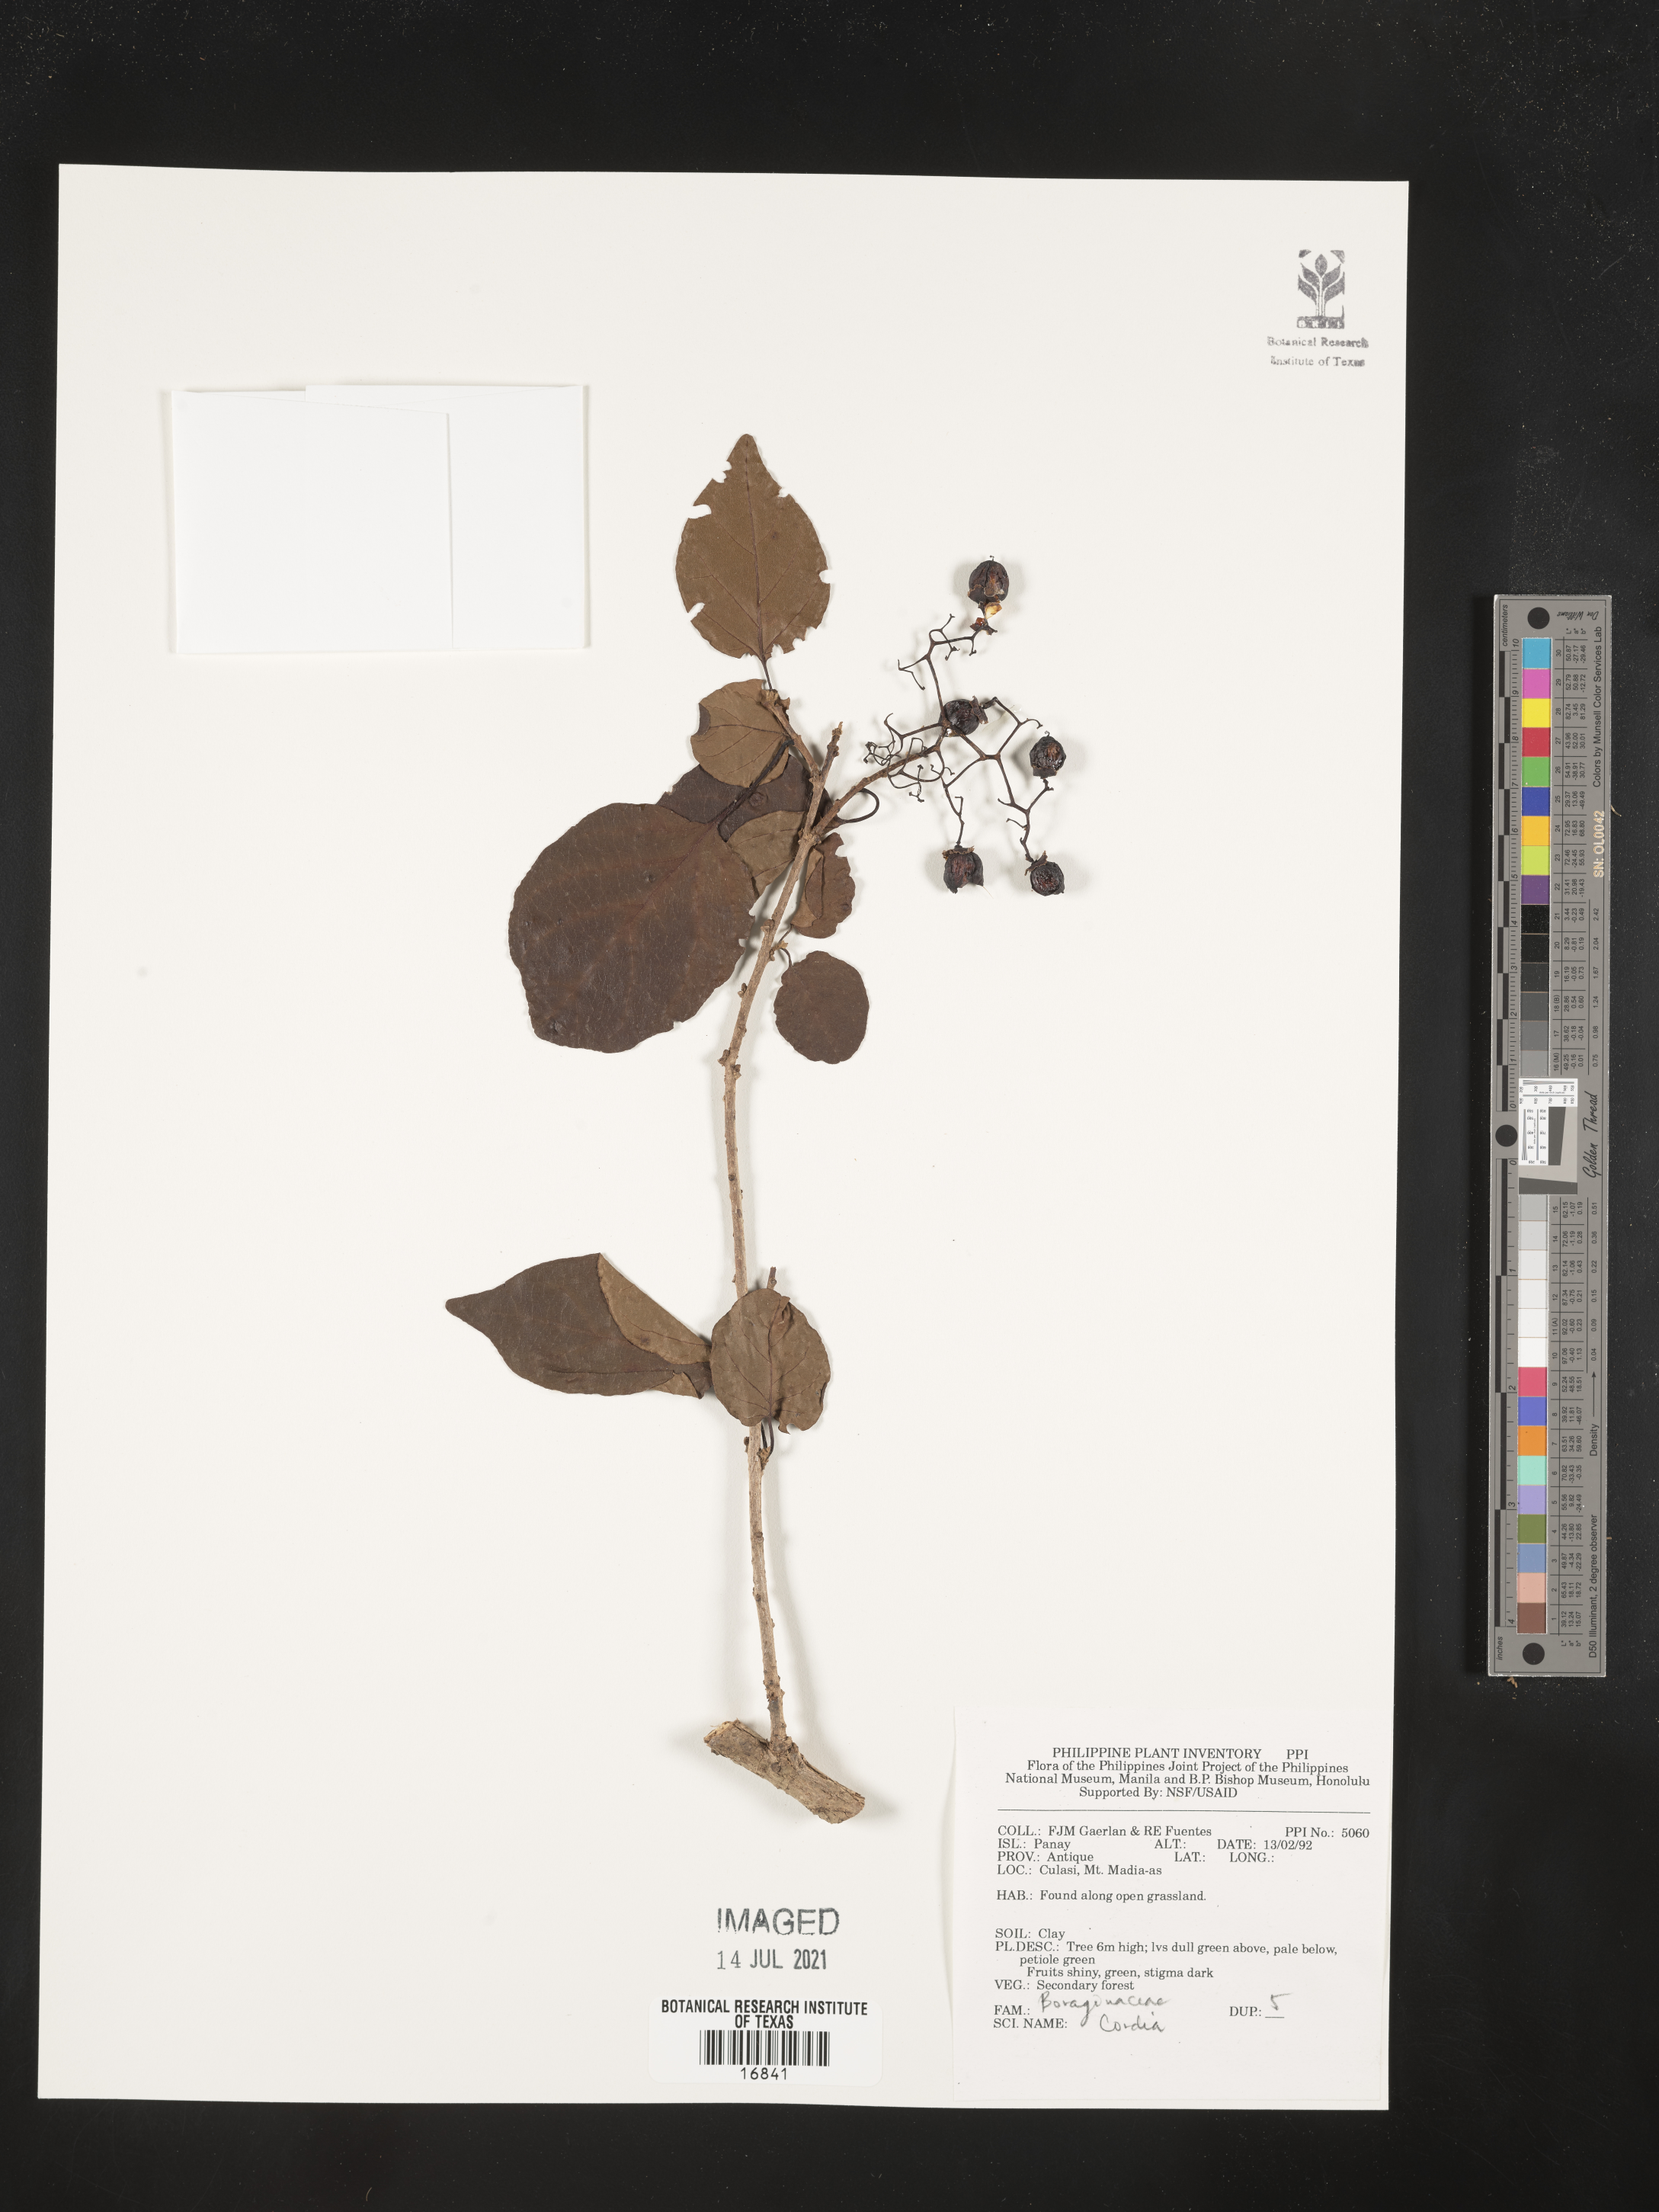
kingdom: Plantae
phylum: Tracheophyta
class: Magnoliopsida
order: Boraginales
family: Cordiaceae
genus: Cordia
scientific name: Cordia
